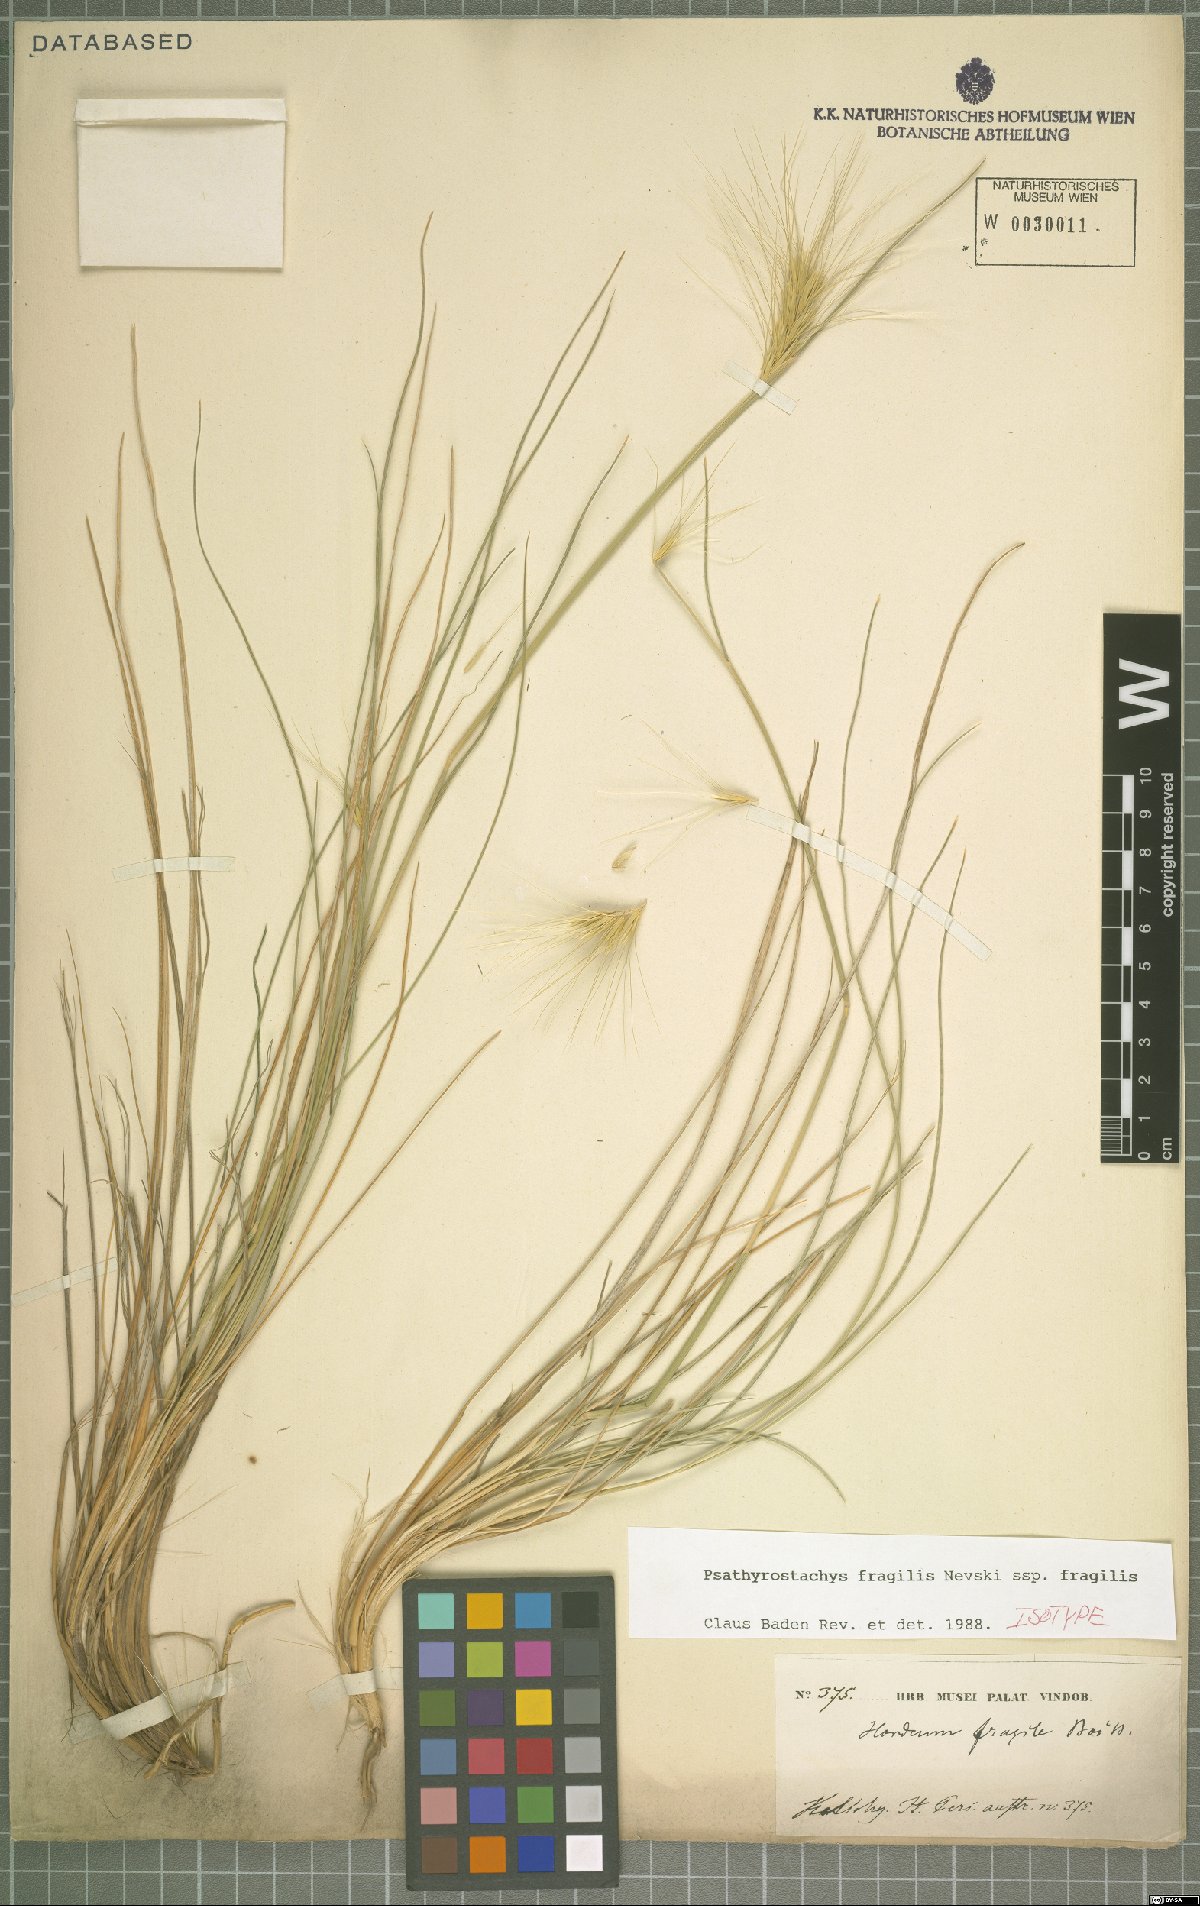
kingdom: Plantae
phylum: Tracheophyta
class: Liliopsida
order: Poales
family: Poaceae
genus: Psathyrostachys
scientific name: Psathyrostachys fragilis
